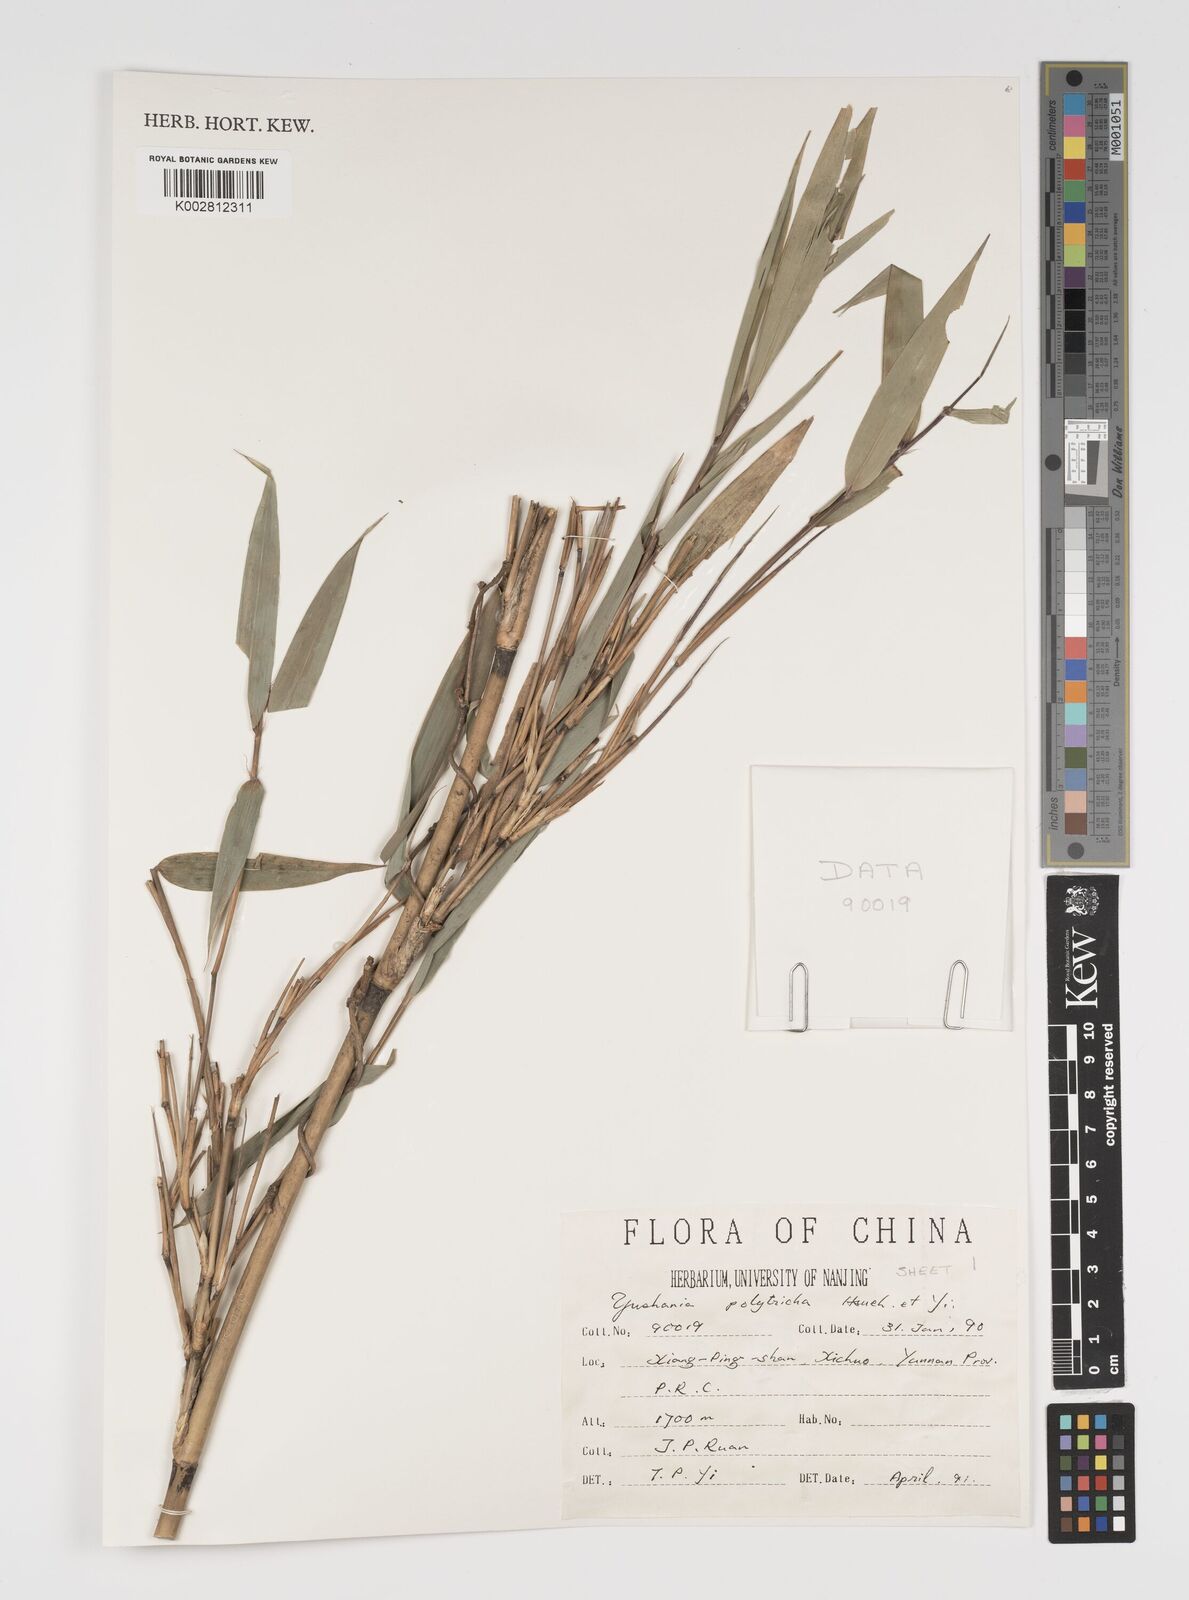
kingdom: Plantae
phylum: Tracheophyta
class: Liliopsida
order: Poales
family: Poaceae
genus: Yushania
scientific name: Yushania polytricha
